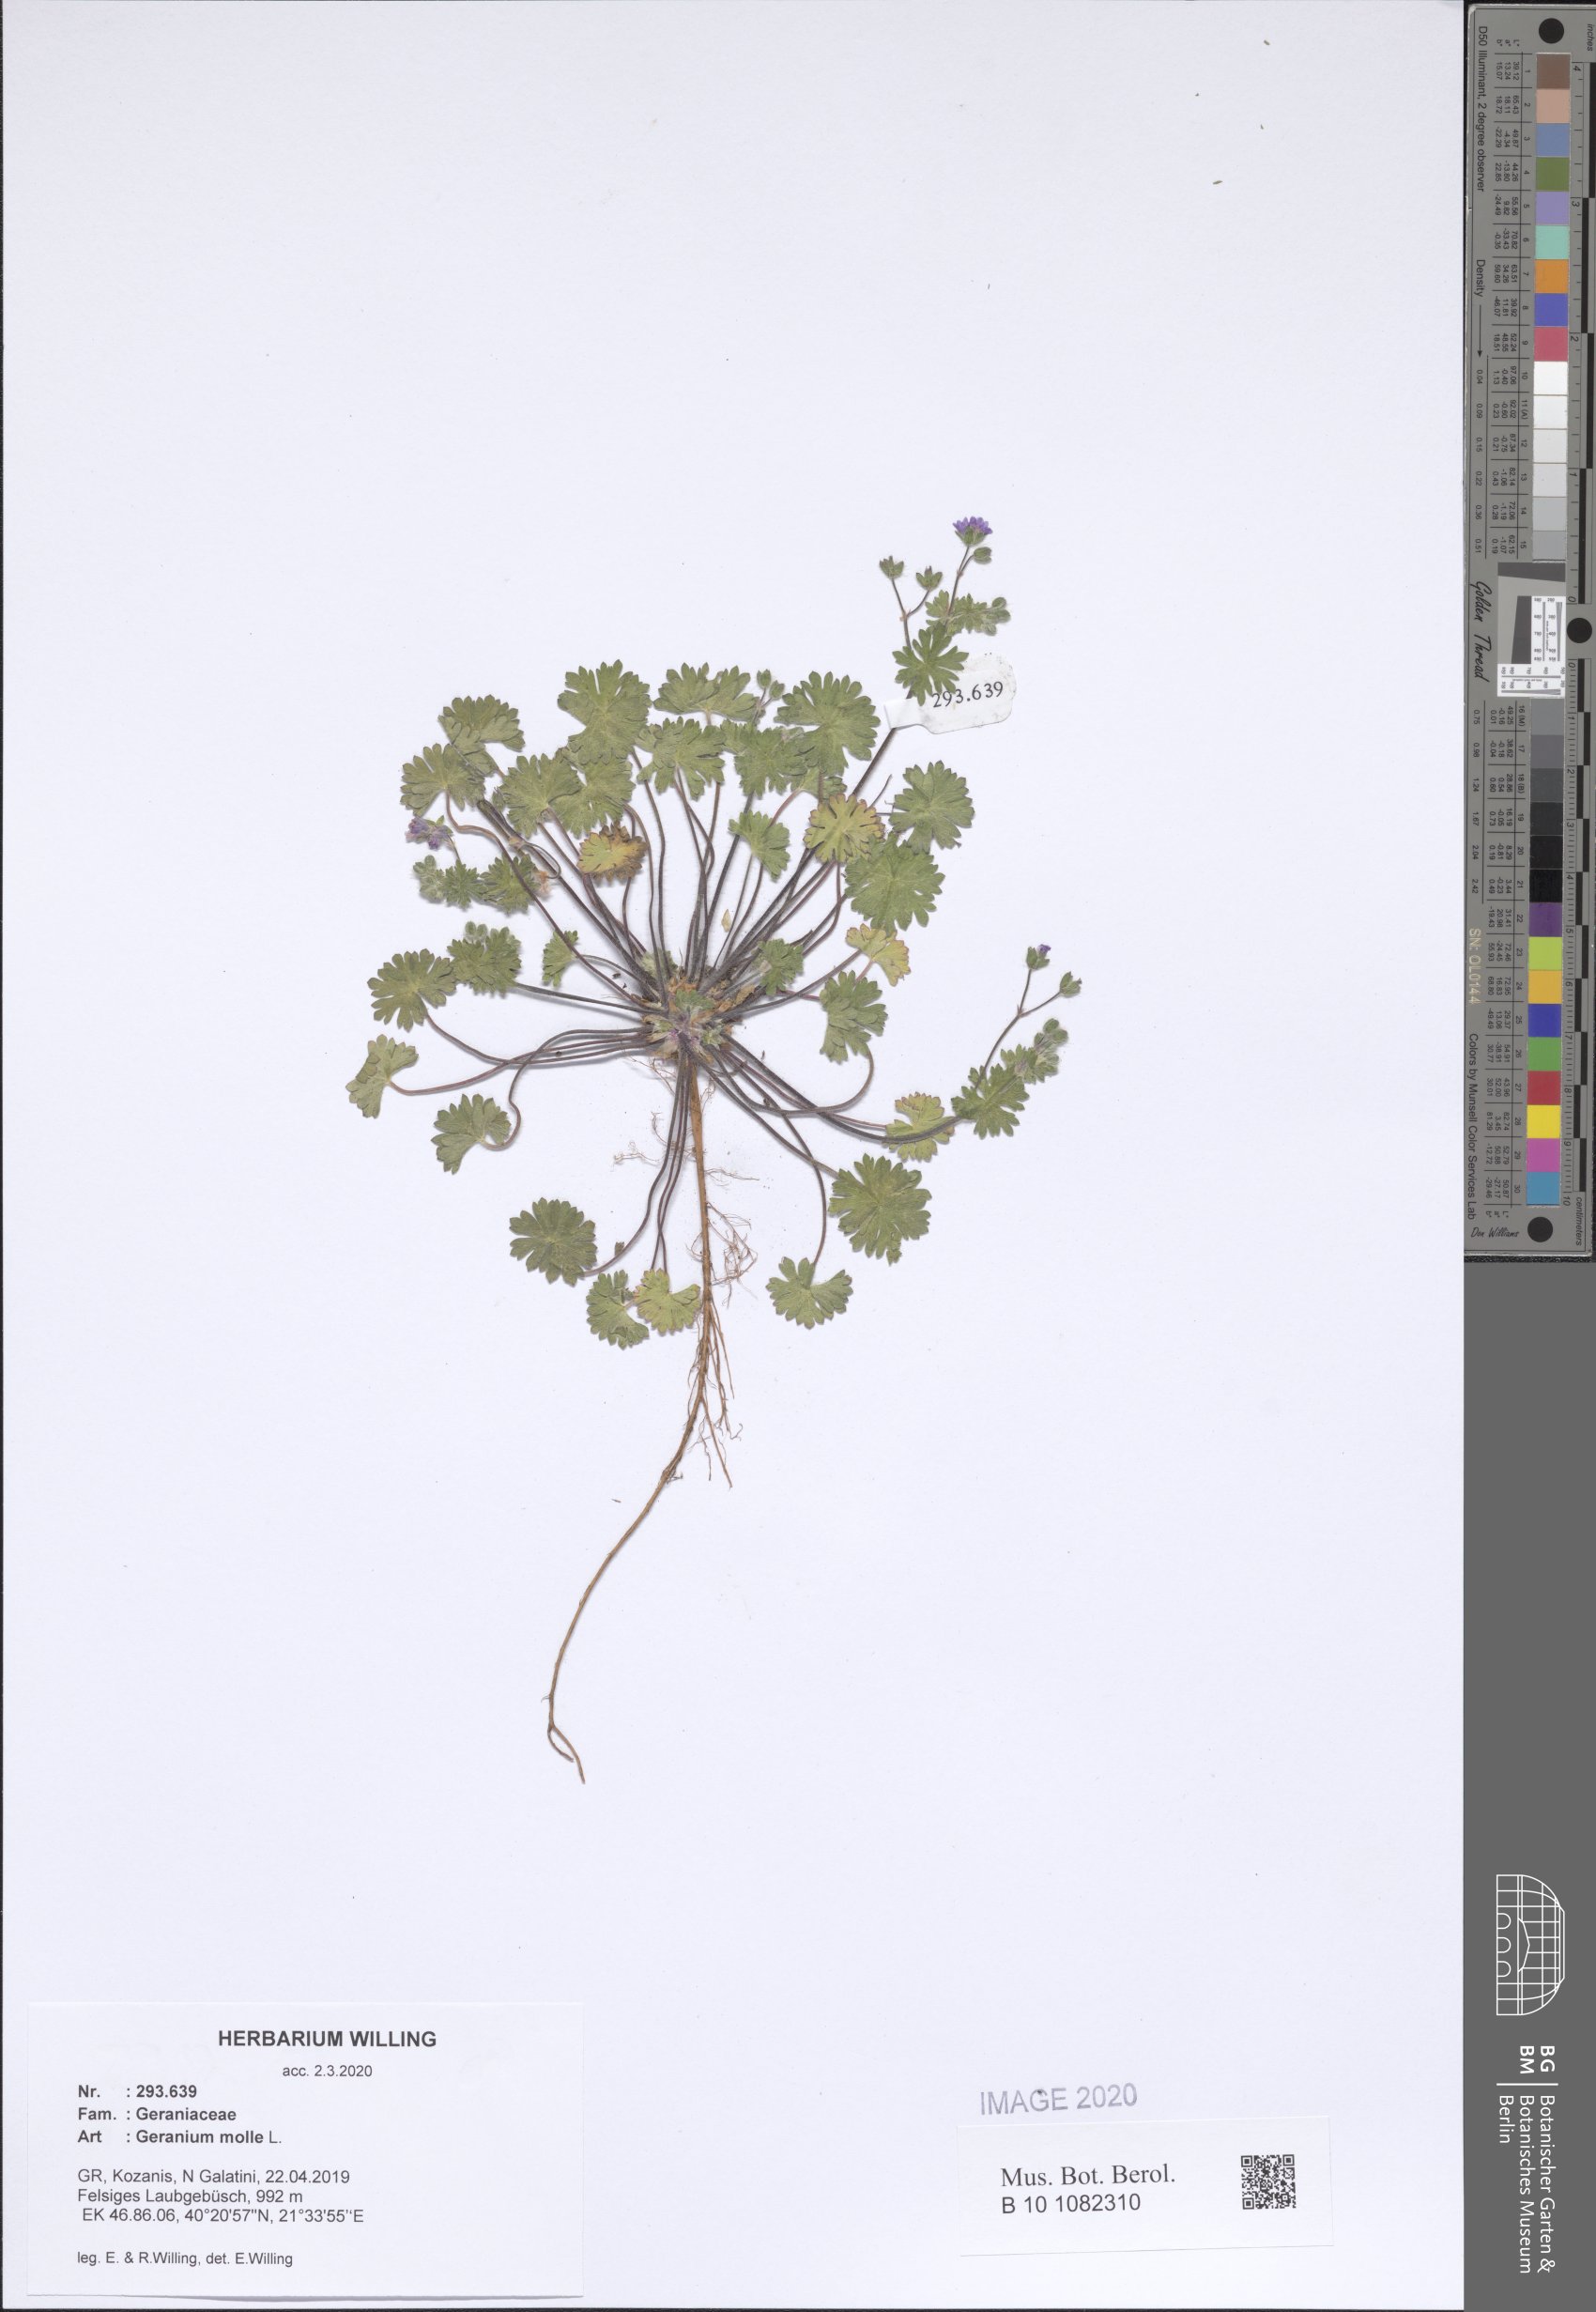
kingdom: Plantae
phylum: Tracheophyta
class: Magnoliopsida
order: Geraniales
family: Geraniaceae
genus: Geranium
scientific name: Geranium molle
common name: Dove's-foot crane's-bill
